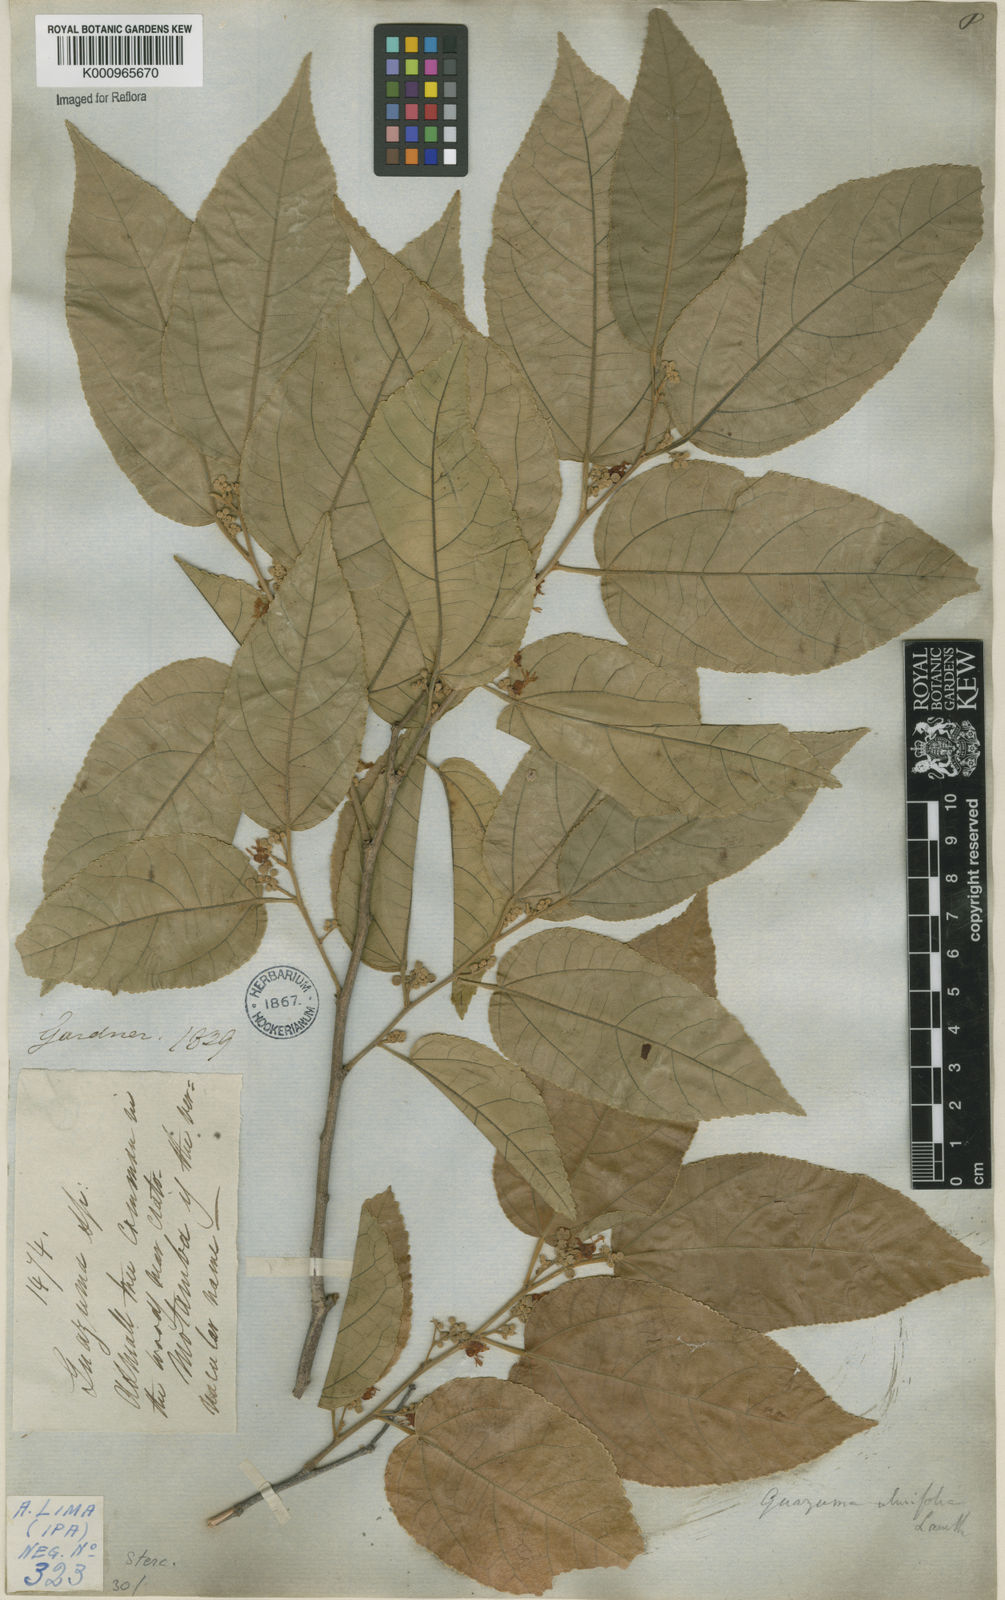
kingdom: Plantae
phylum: Tracheophyta
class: Magnoliopsida
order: Malvales
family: Malvaceae
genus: Guazuma
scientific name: Guazuma ulmifolia
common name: Bastard-cedar
